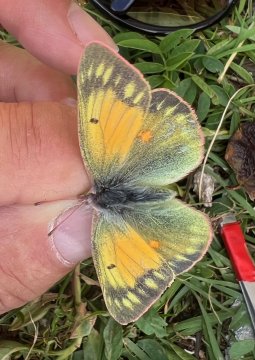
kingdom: Animalia
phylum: Arthropoda
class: Insecta
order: Lepidoptera
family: Pieridae
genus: Colias
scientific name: Colias hecla
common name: Hecla Sulphur
